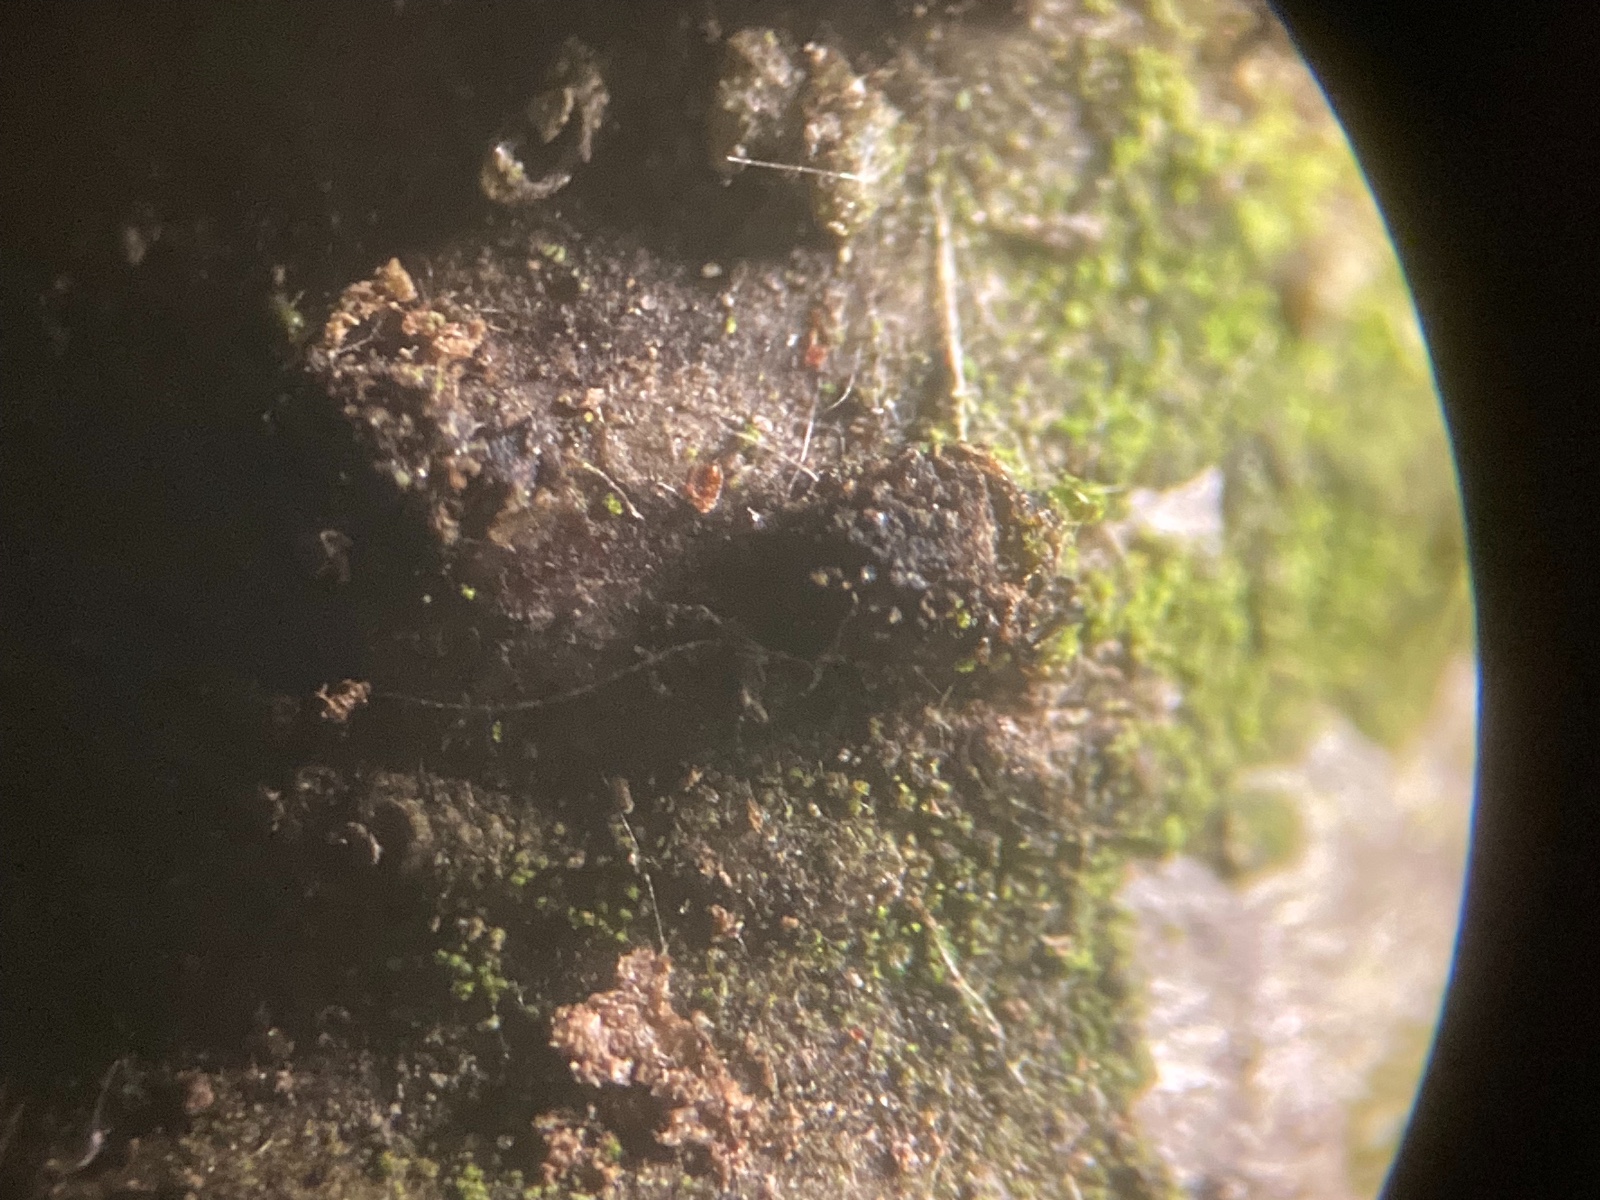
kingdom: Fungi
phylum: Ascomycota
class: Sordariomycetes
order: Diaporthales
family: Melanconidaceae
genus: Melanconis
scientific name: Melanconis alni
